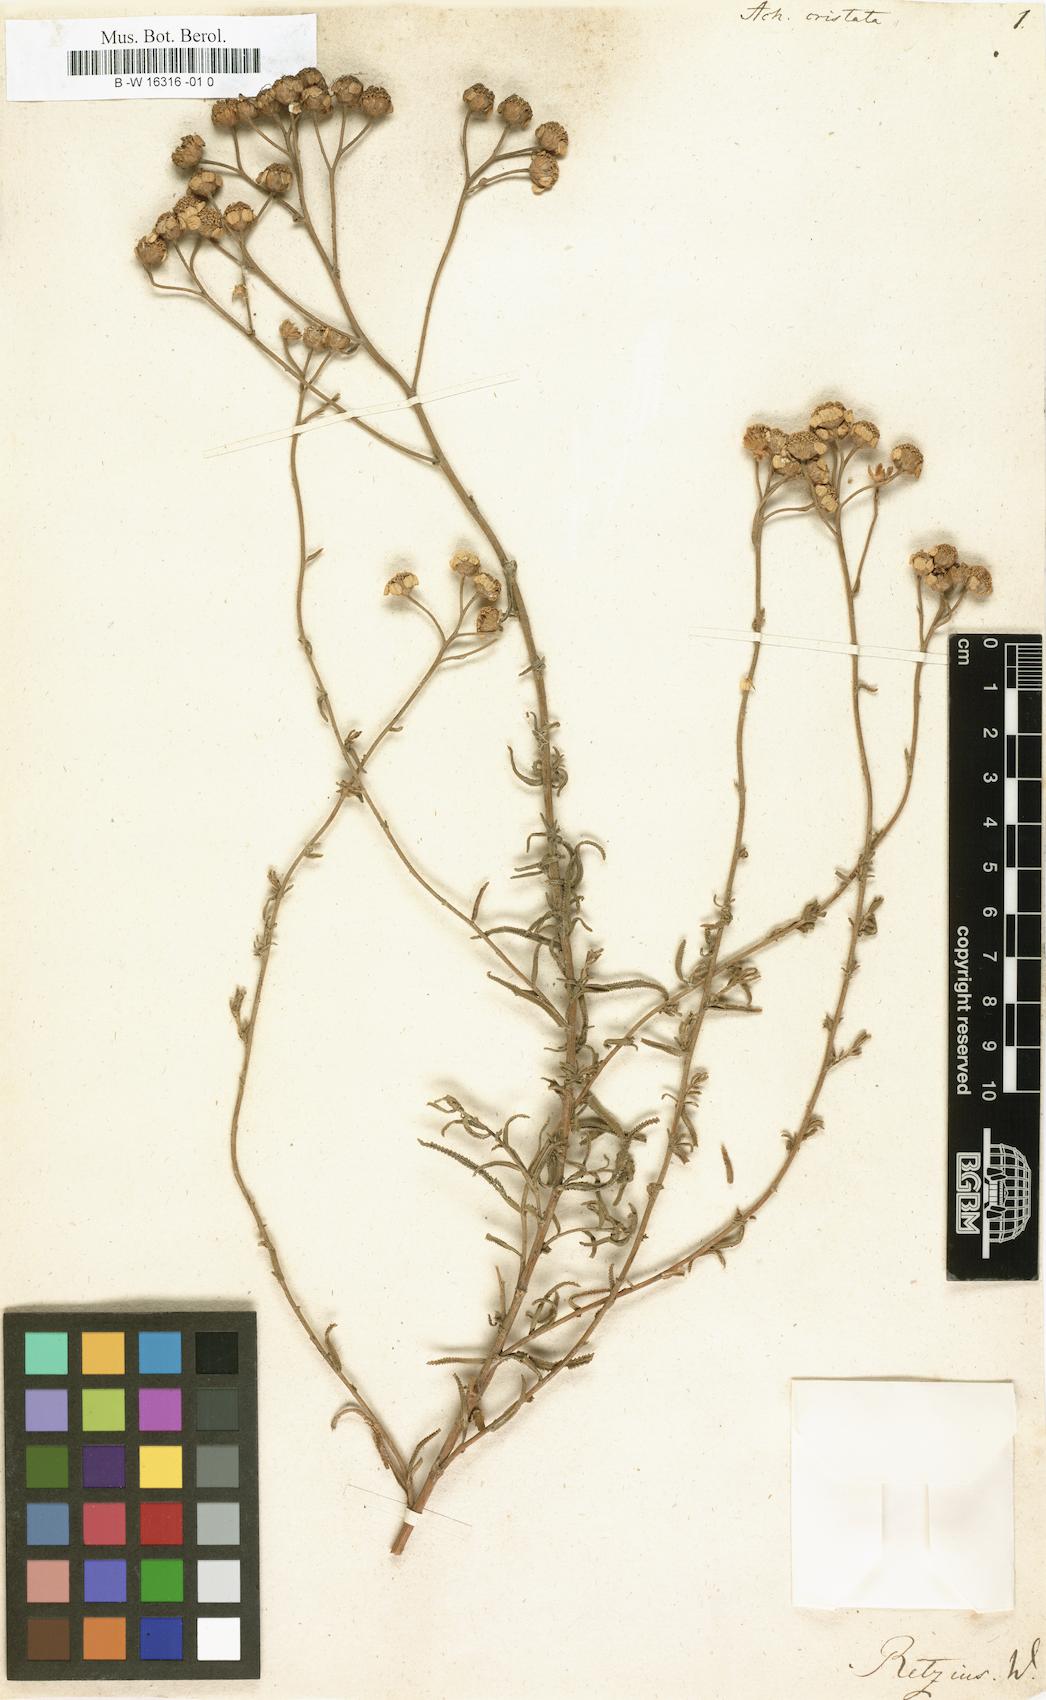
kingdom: Plantae
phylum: Tracheophyta
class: Magnoliopsida
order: Asterales
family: Asteraceae
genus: Achillea
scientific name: Achillea alpina
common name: Siberian yarrow
